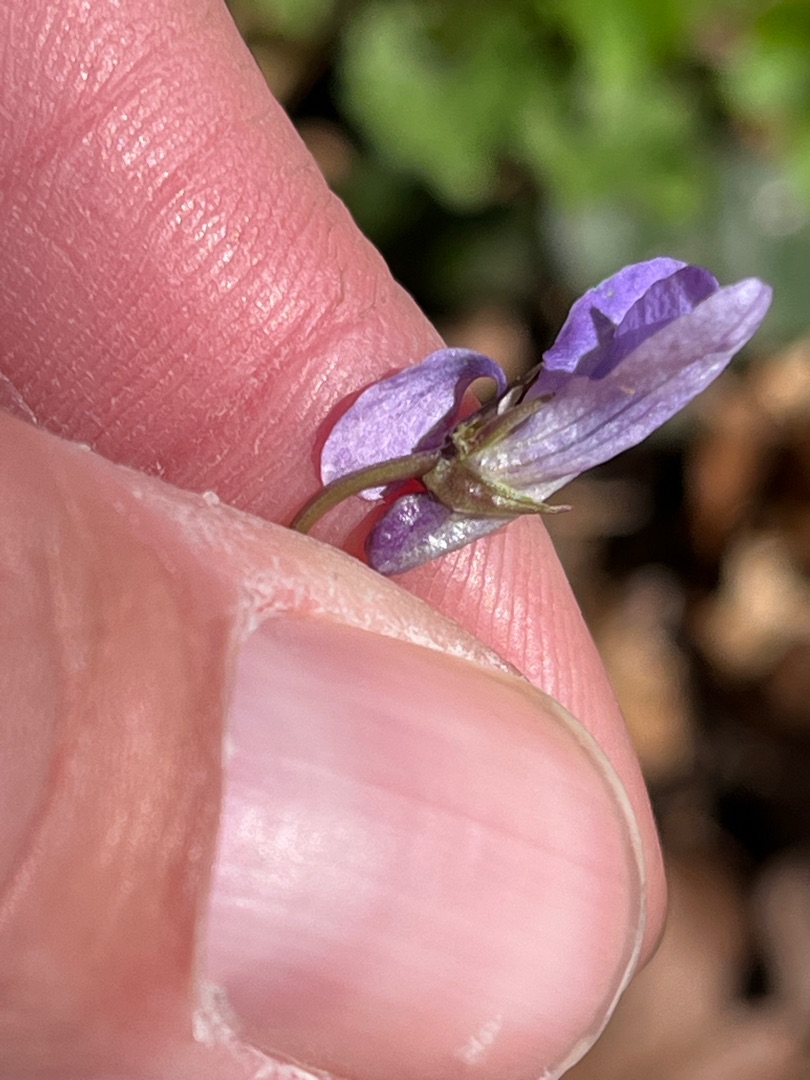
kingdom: Plantae
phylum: Tracheophyta
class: Magnoliopsida
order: Malpighiales
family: Violaceae
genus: Viola
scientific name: Viola reichenbachiana
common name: Skov-viol
